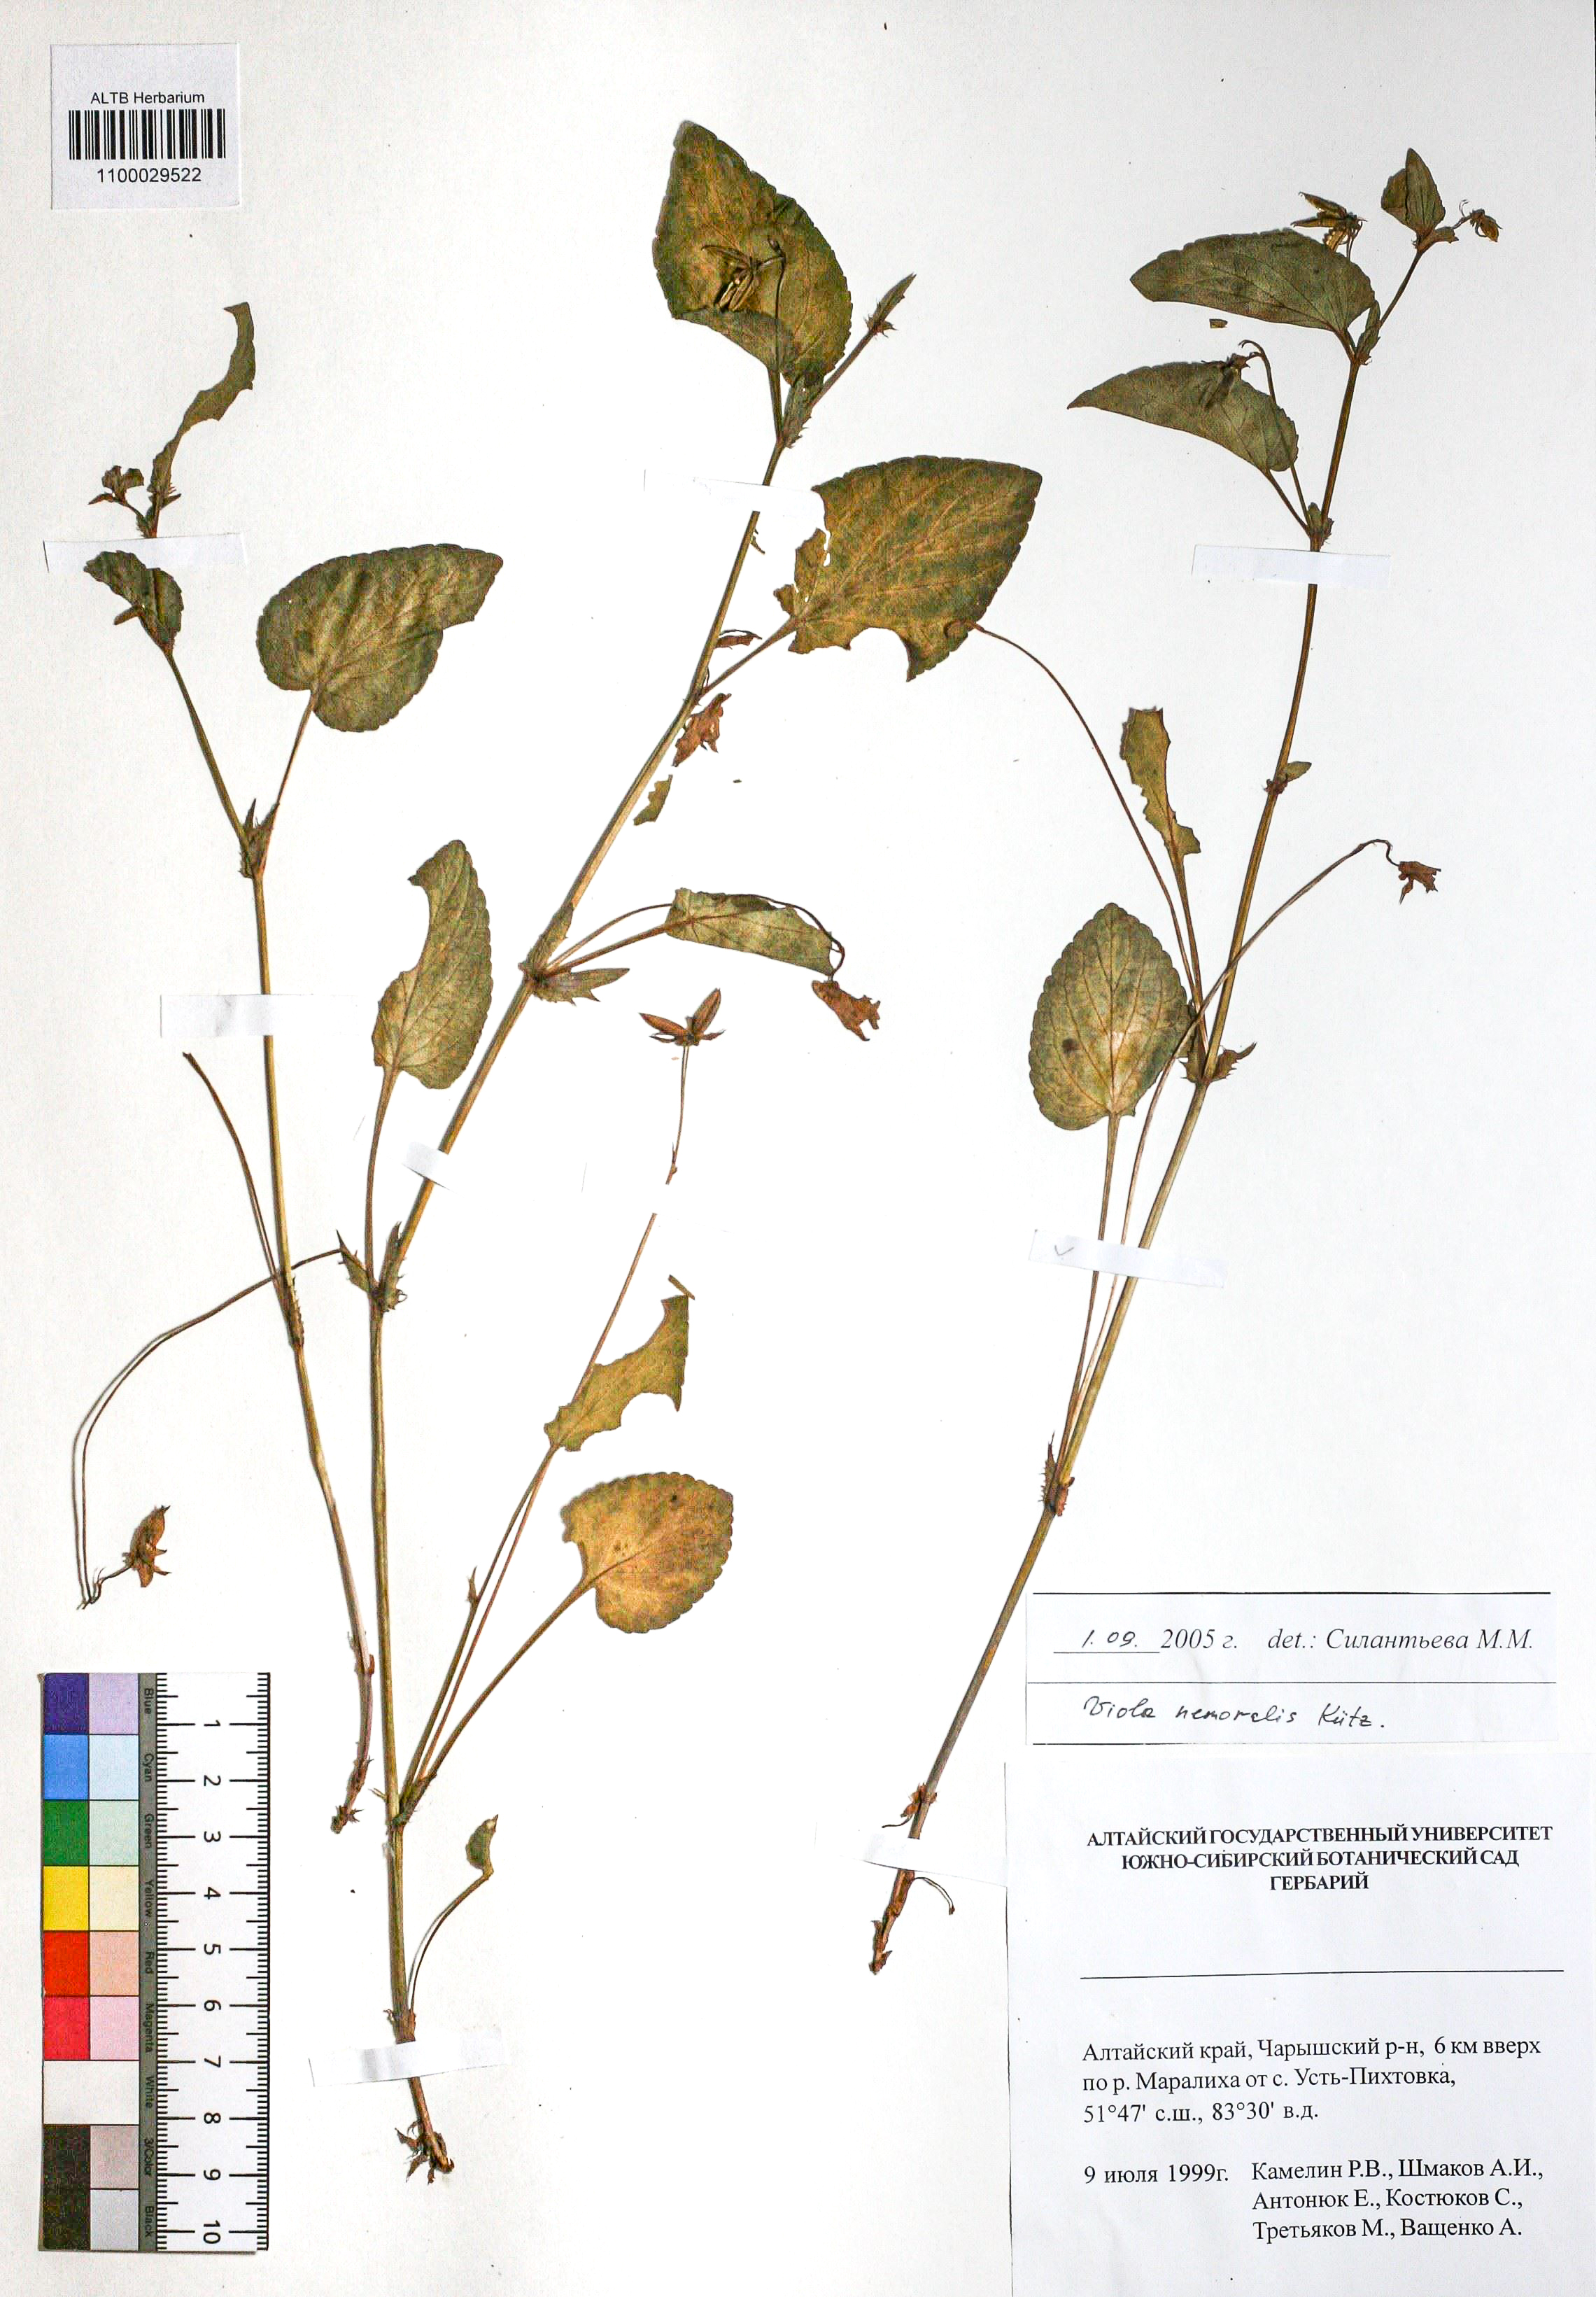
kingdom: Plantae
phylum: Tracheophyta
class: Magnoliopsida
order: Malpighiales
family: Violaceae
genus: Viola
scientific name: Viola ruppii
